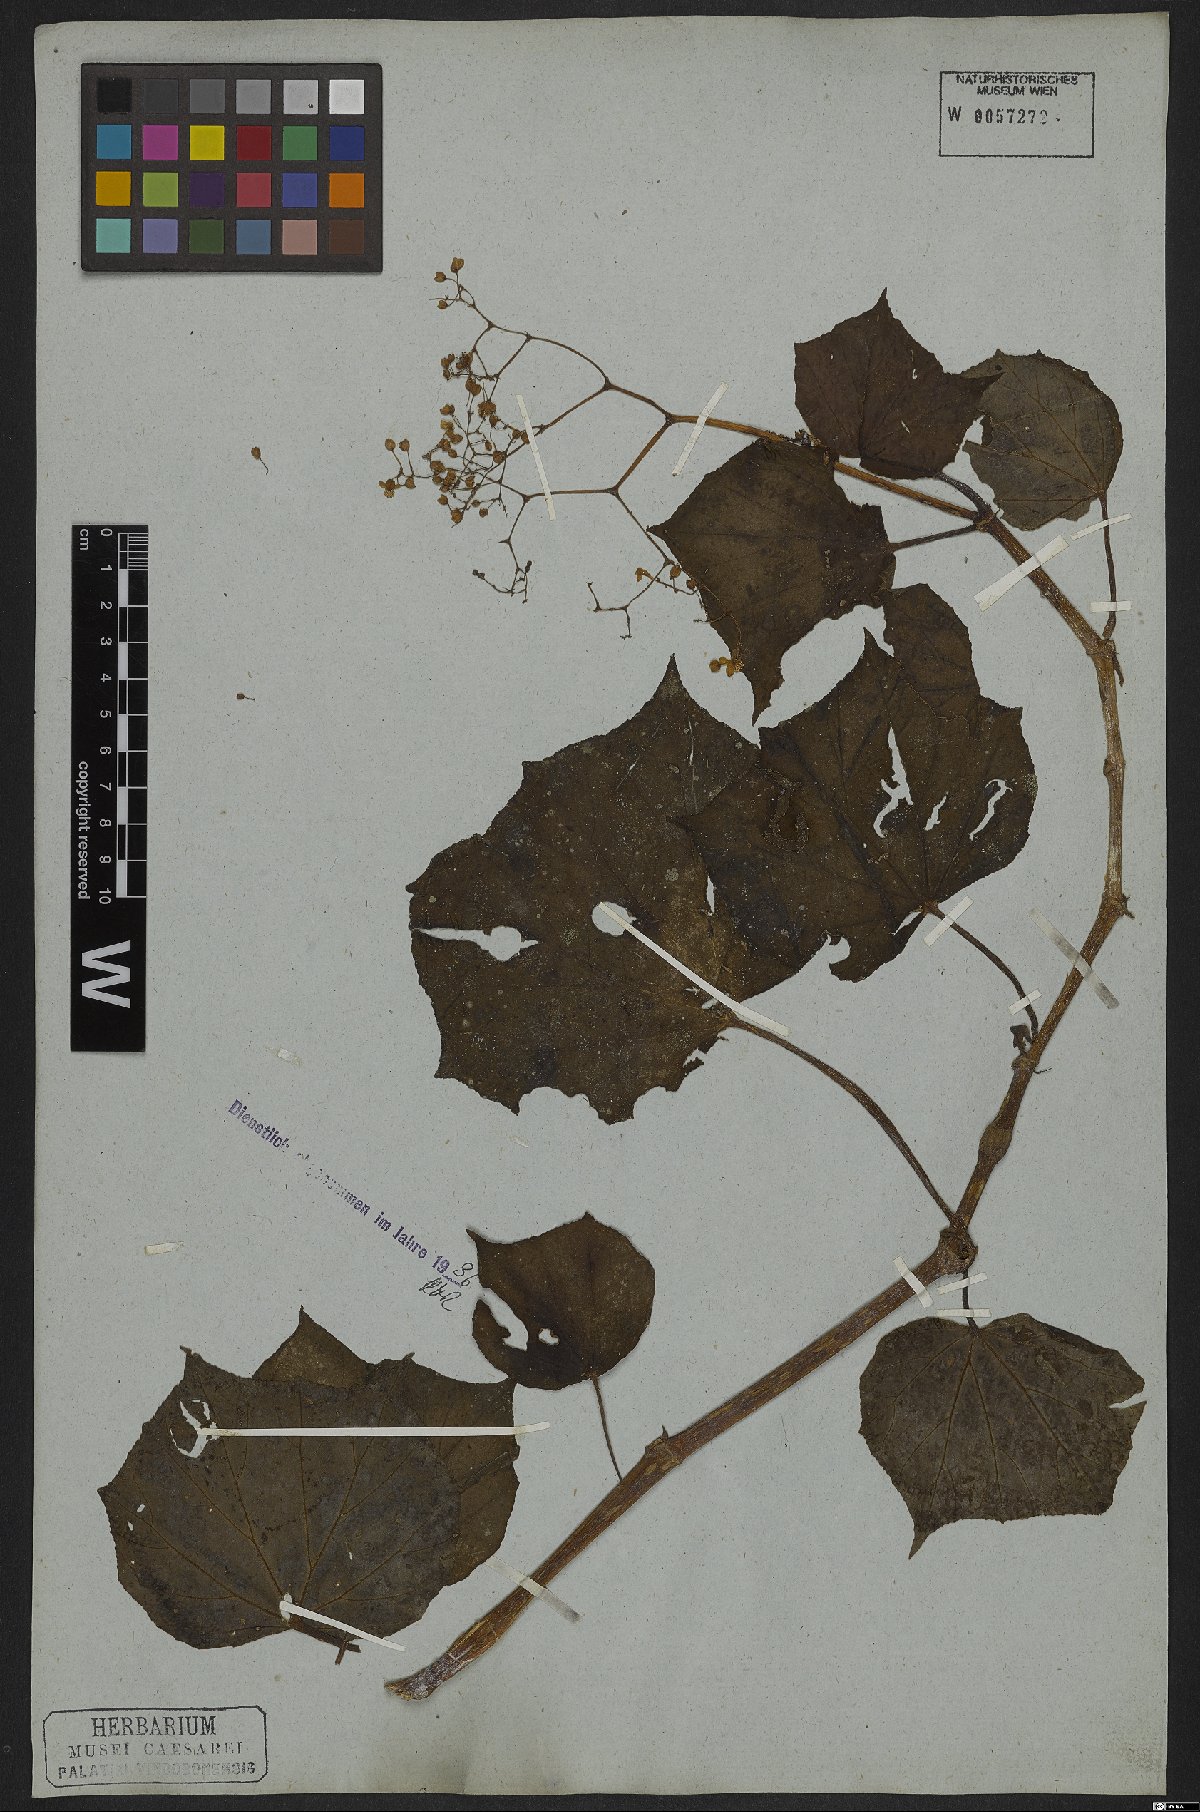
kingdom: Plantae
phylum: Tracheophyta
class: Magnoliopsida
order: Cucurbitales
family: Begoniaceae
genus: Begonia
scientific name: Begonia convolvulacea
